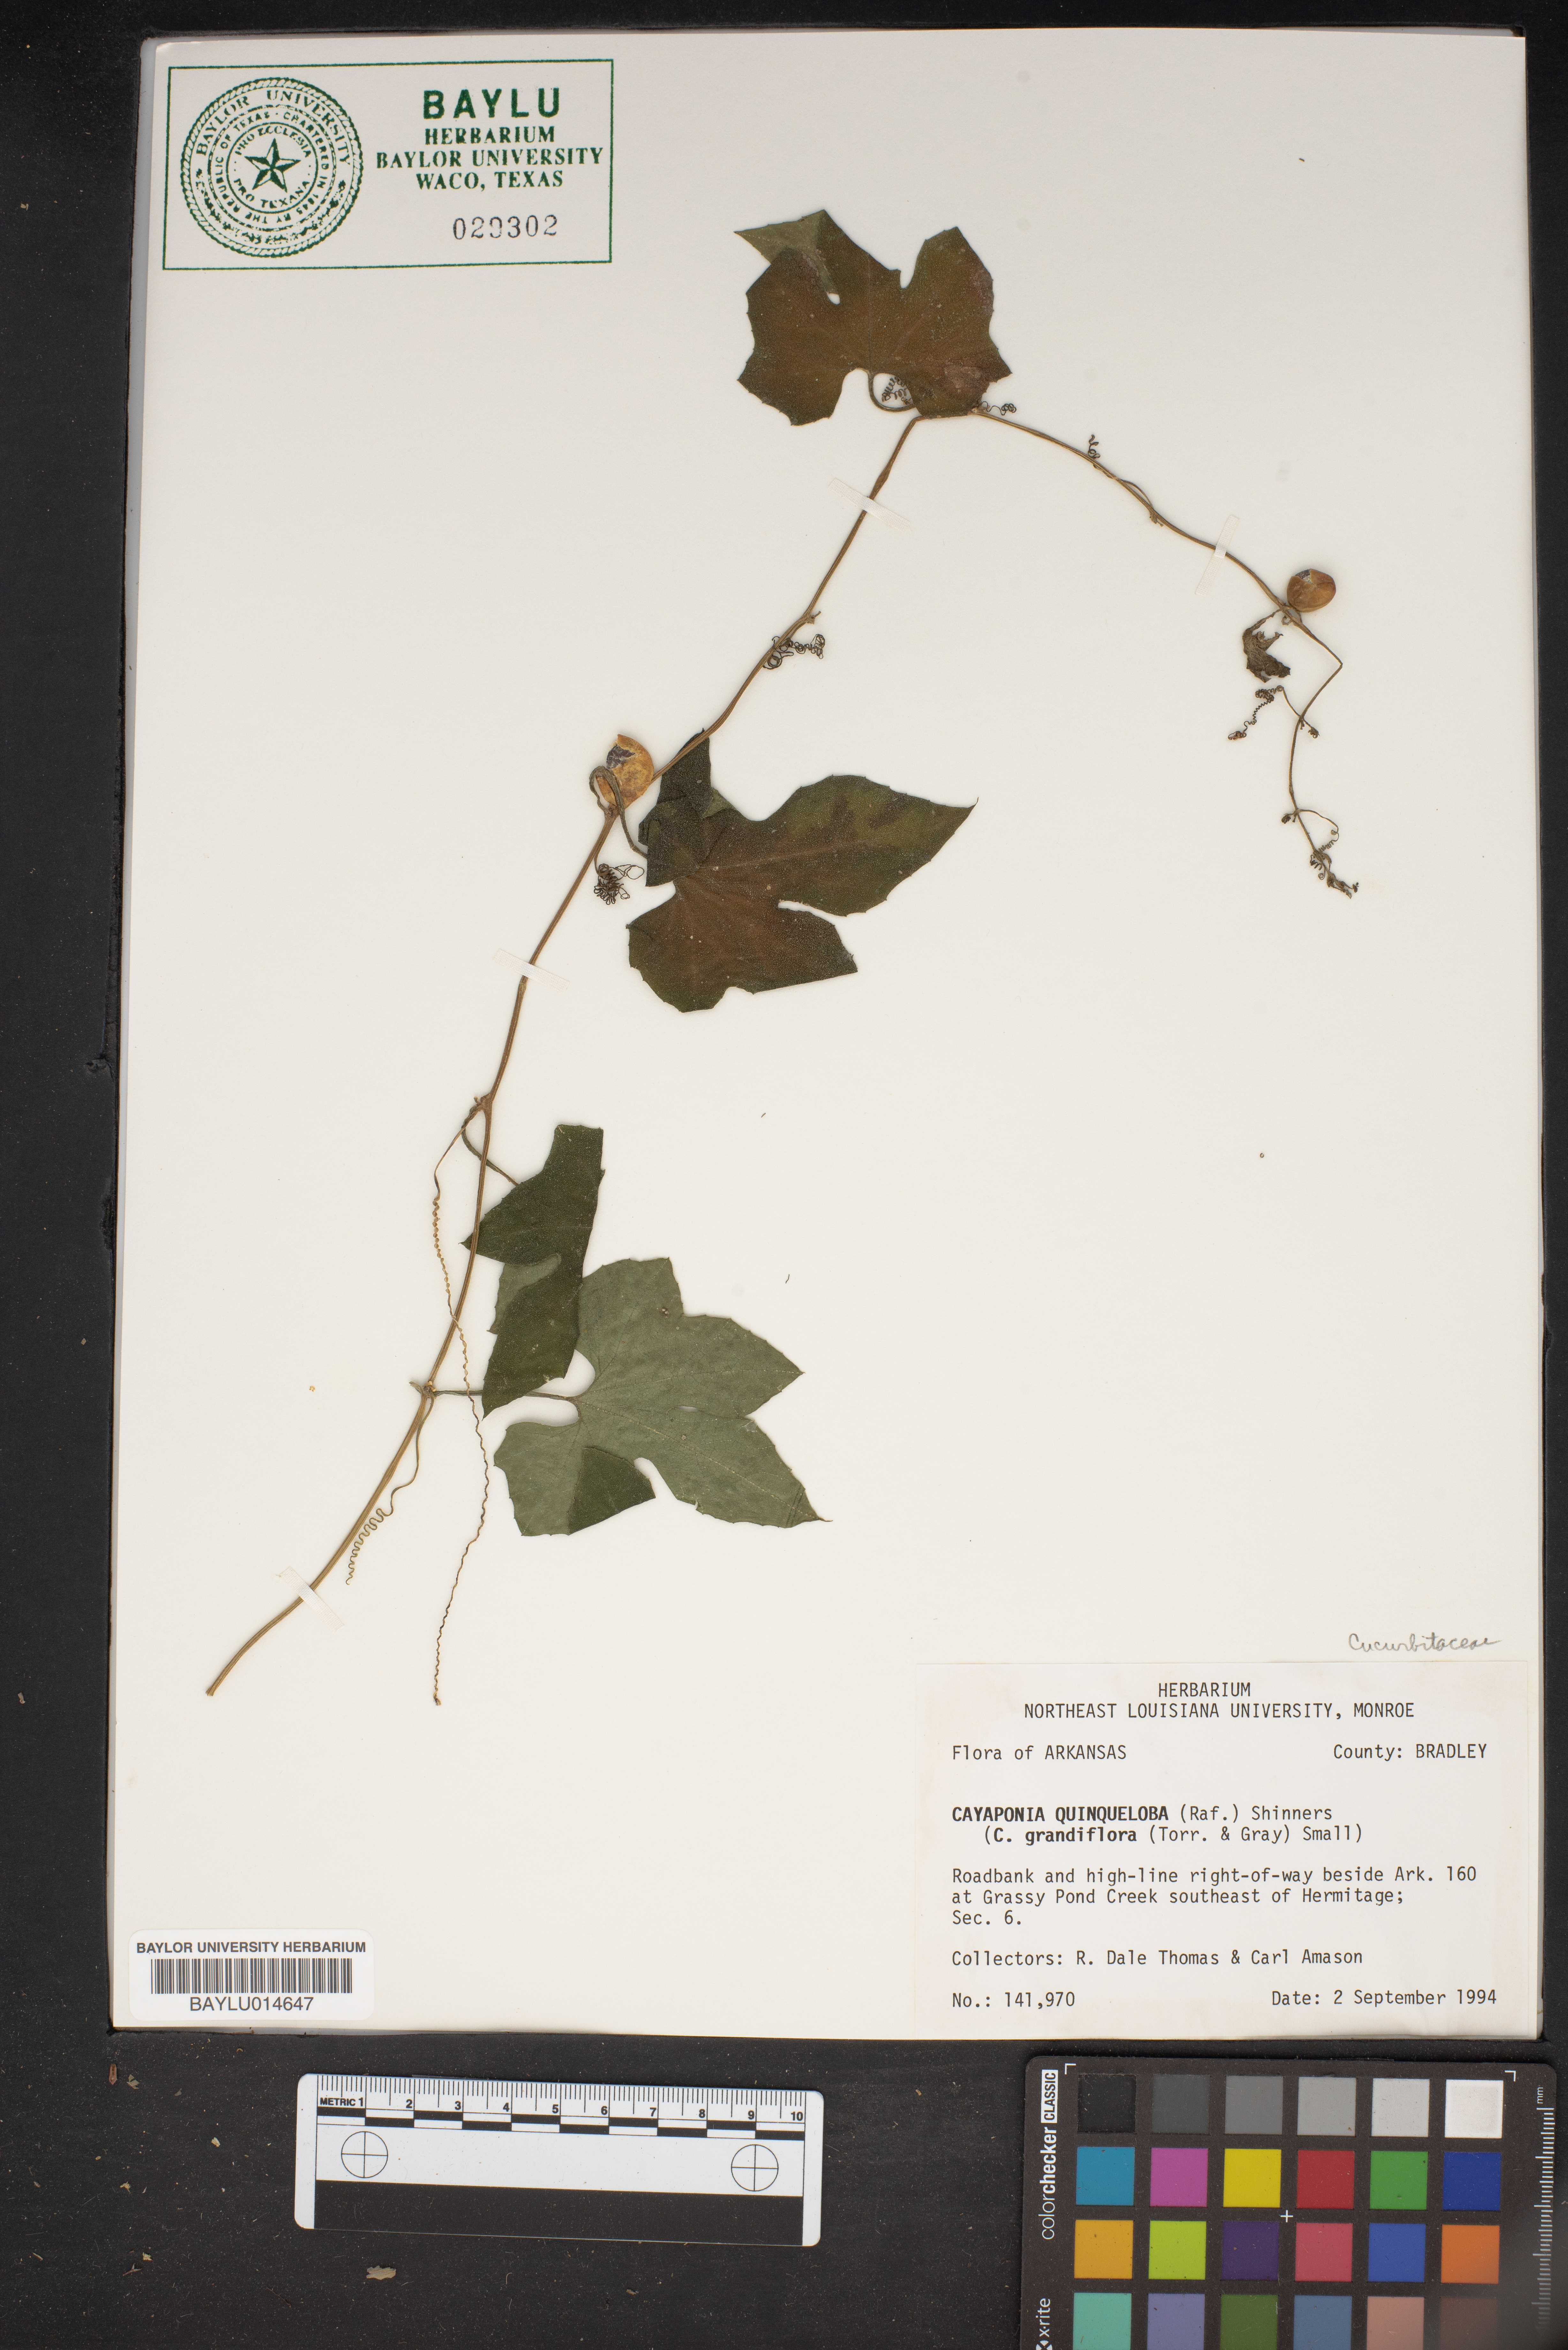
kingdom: Plantae
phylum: Tracheophyta
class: Magnoliopsida
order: Cucurbitales
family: Cucurbitaceae
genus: Cayaponia
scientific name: Cayaponia quinqueloba
